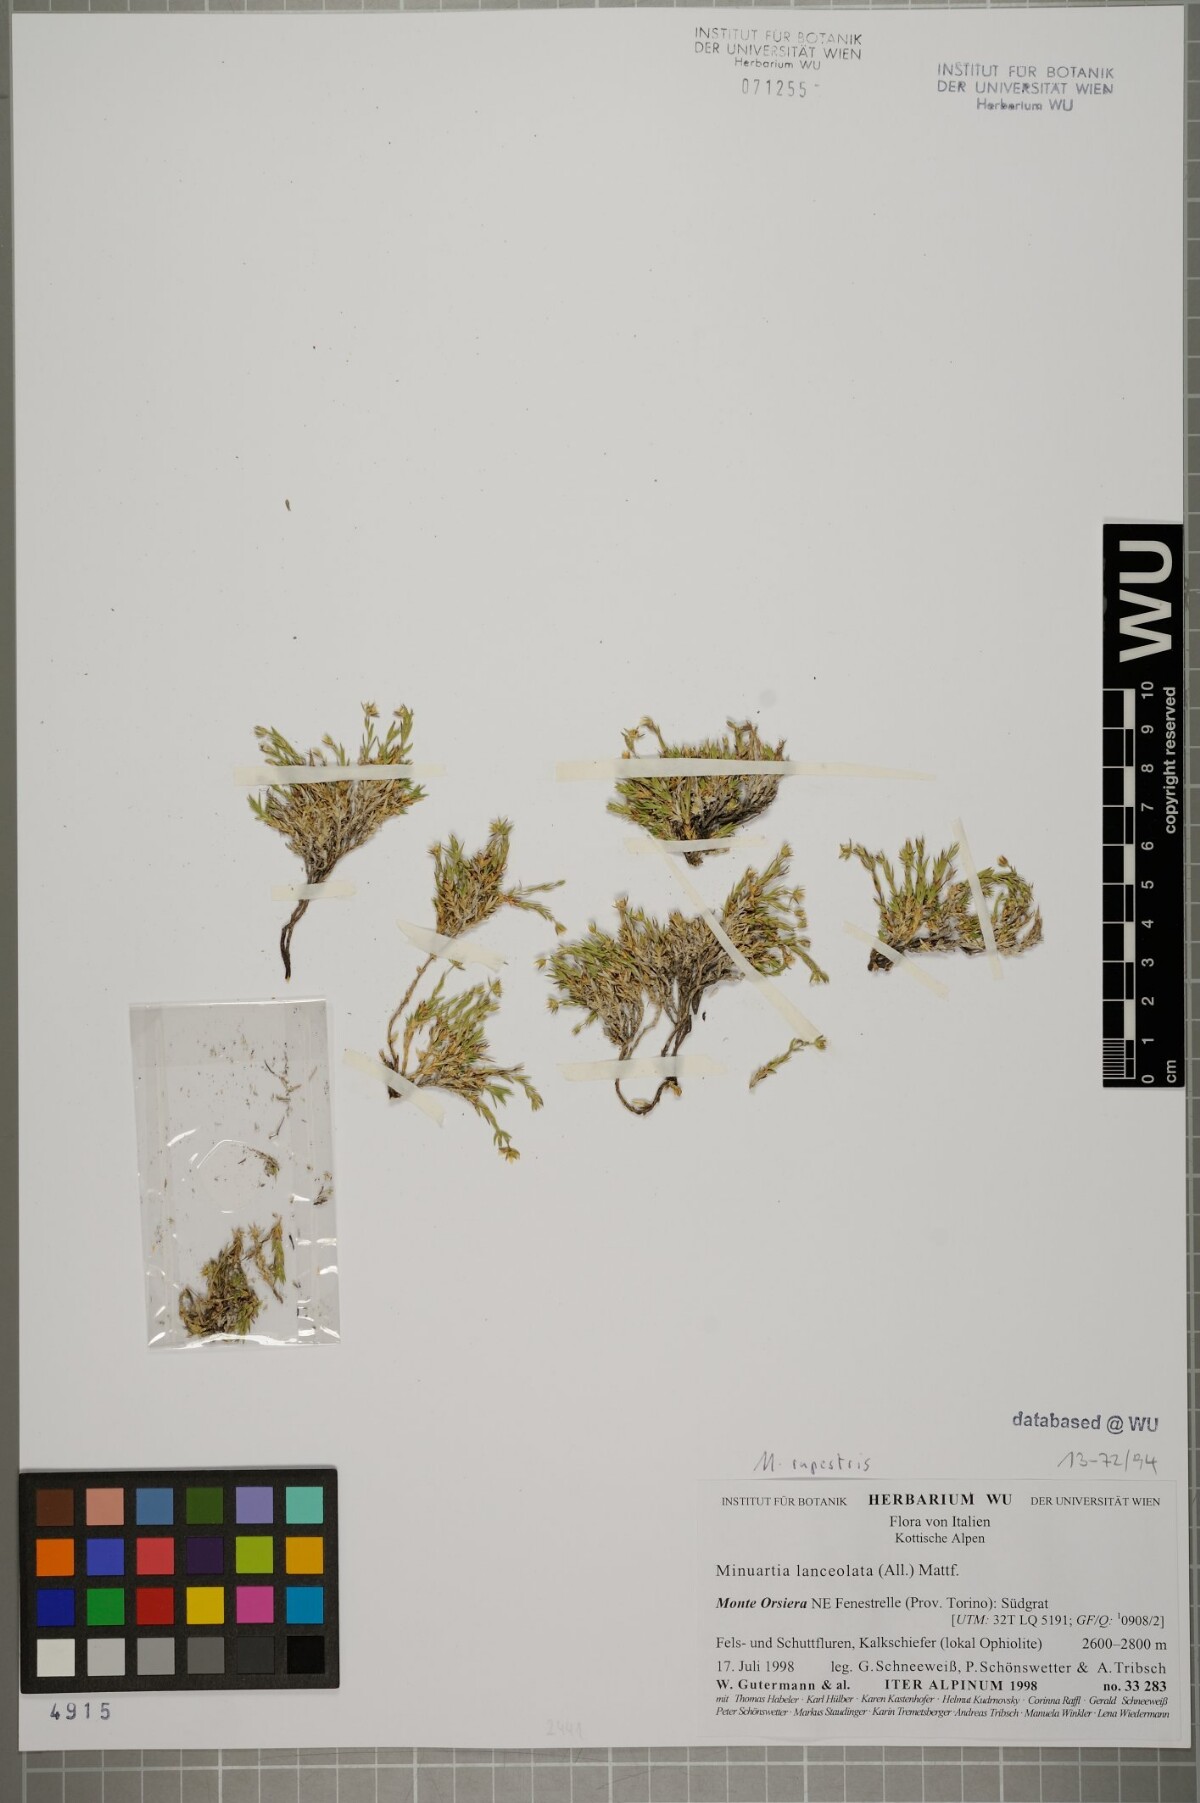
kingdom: Plantae
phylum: Tracheophyta
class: Magnoliopsida
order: Caryophyllales
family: Caryophyllaceae
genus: Facchinia
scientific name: Facchinia lanceolata
